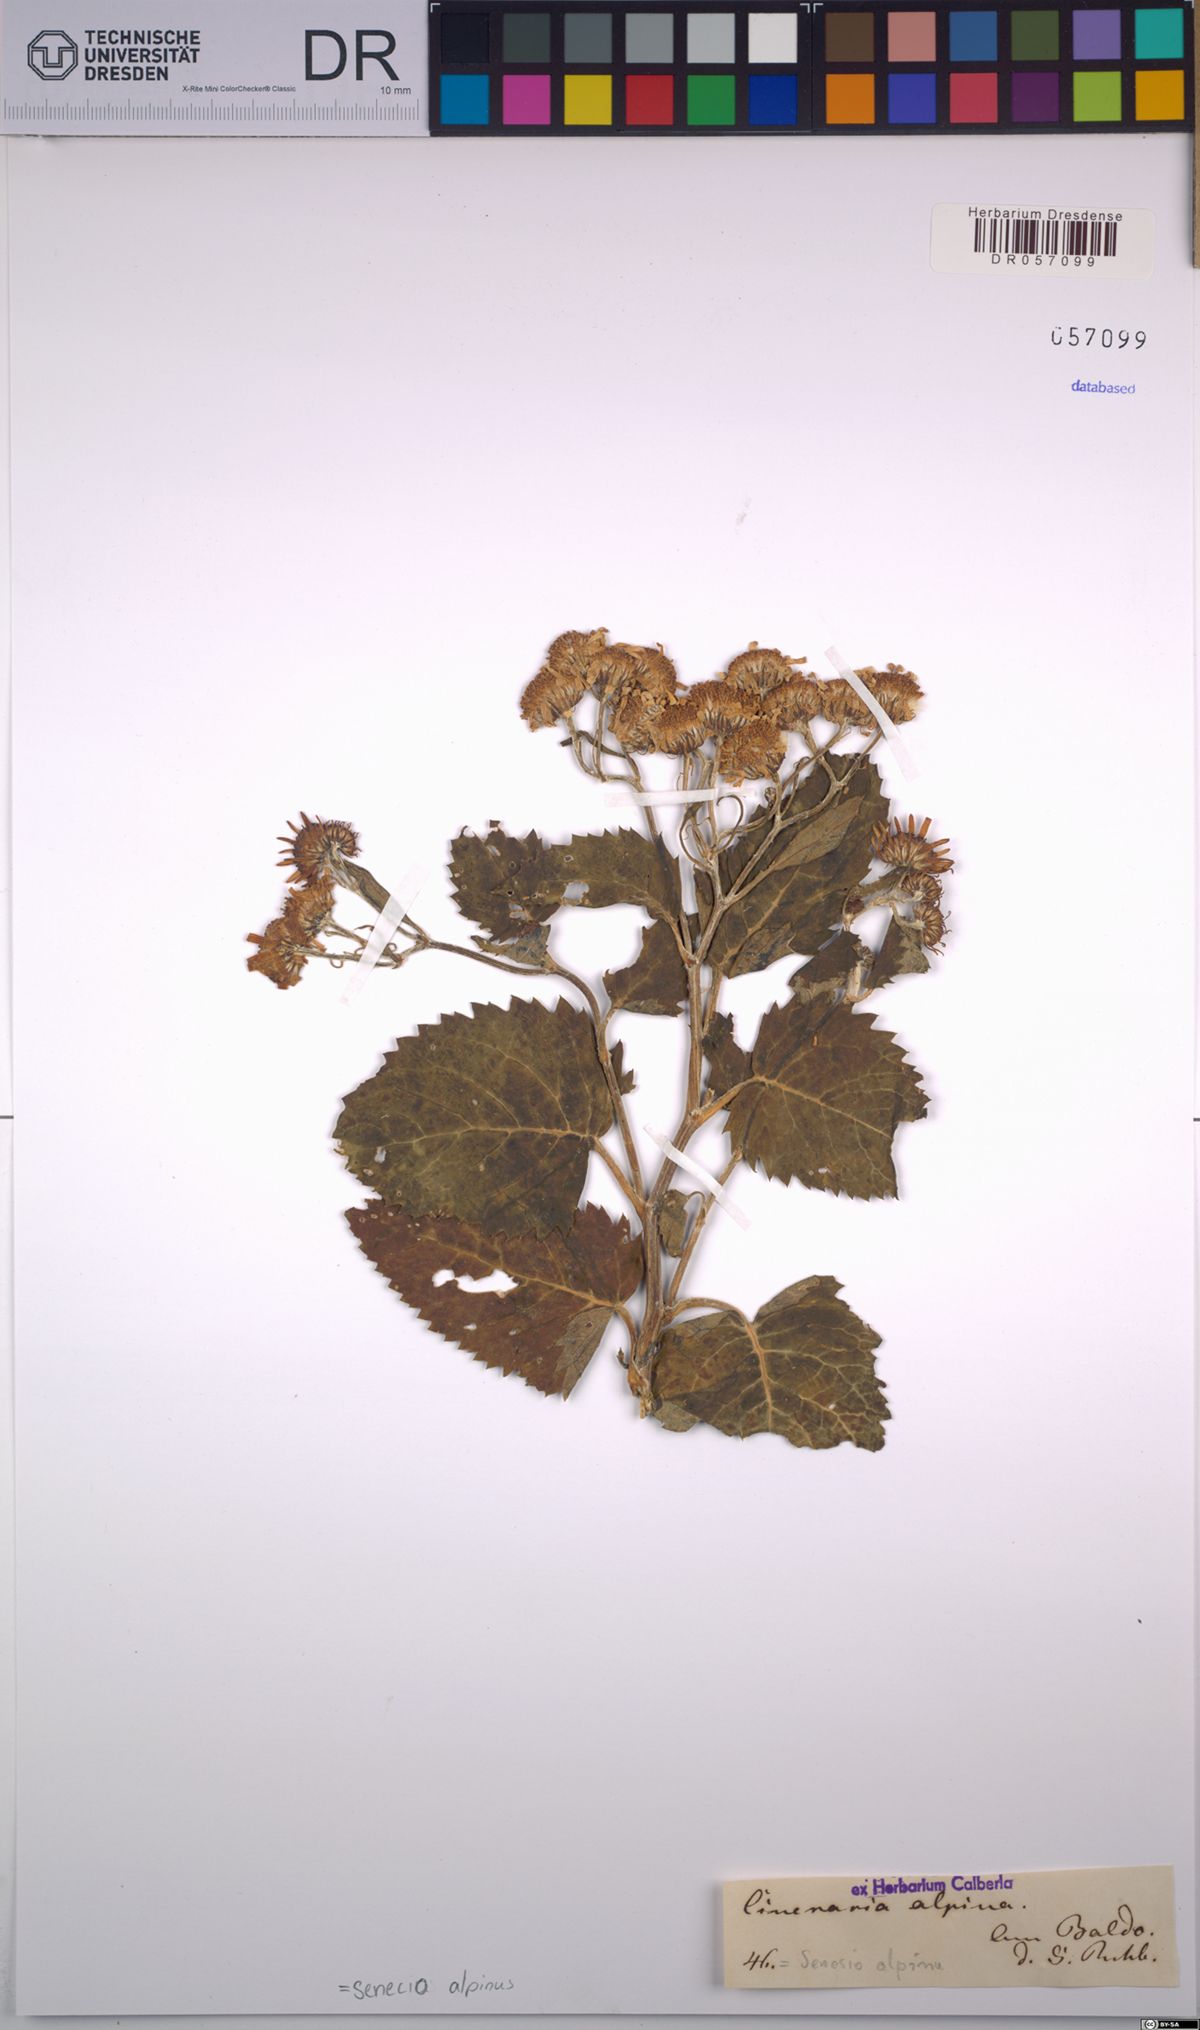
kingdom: Plantae
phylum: Tracheophyta
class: Magnoliopsida
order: Asterales
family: Asteraceae
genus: Jacobaea
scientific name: Jacobaea alpina
